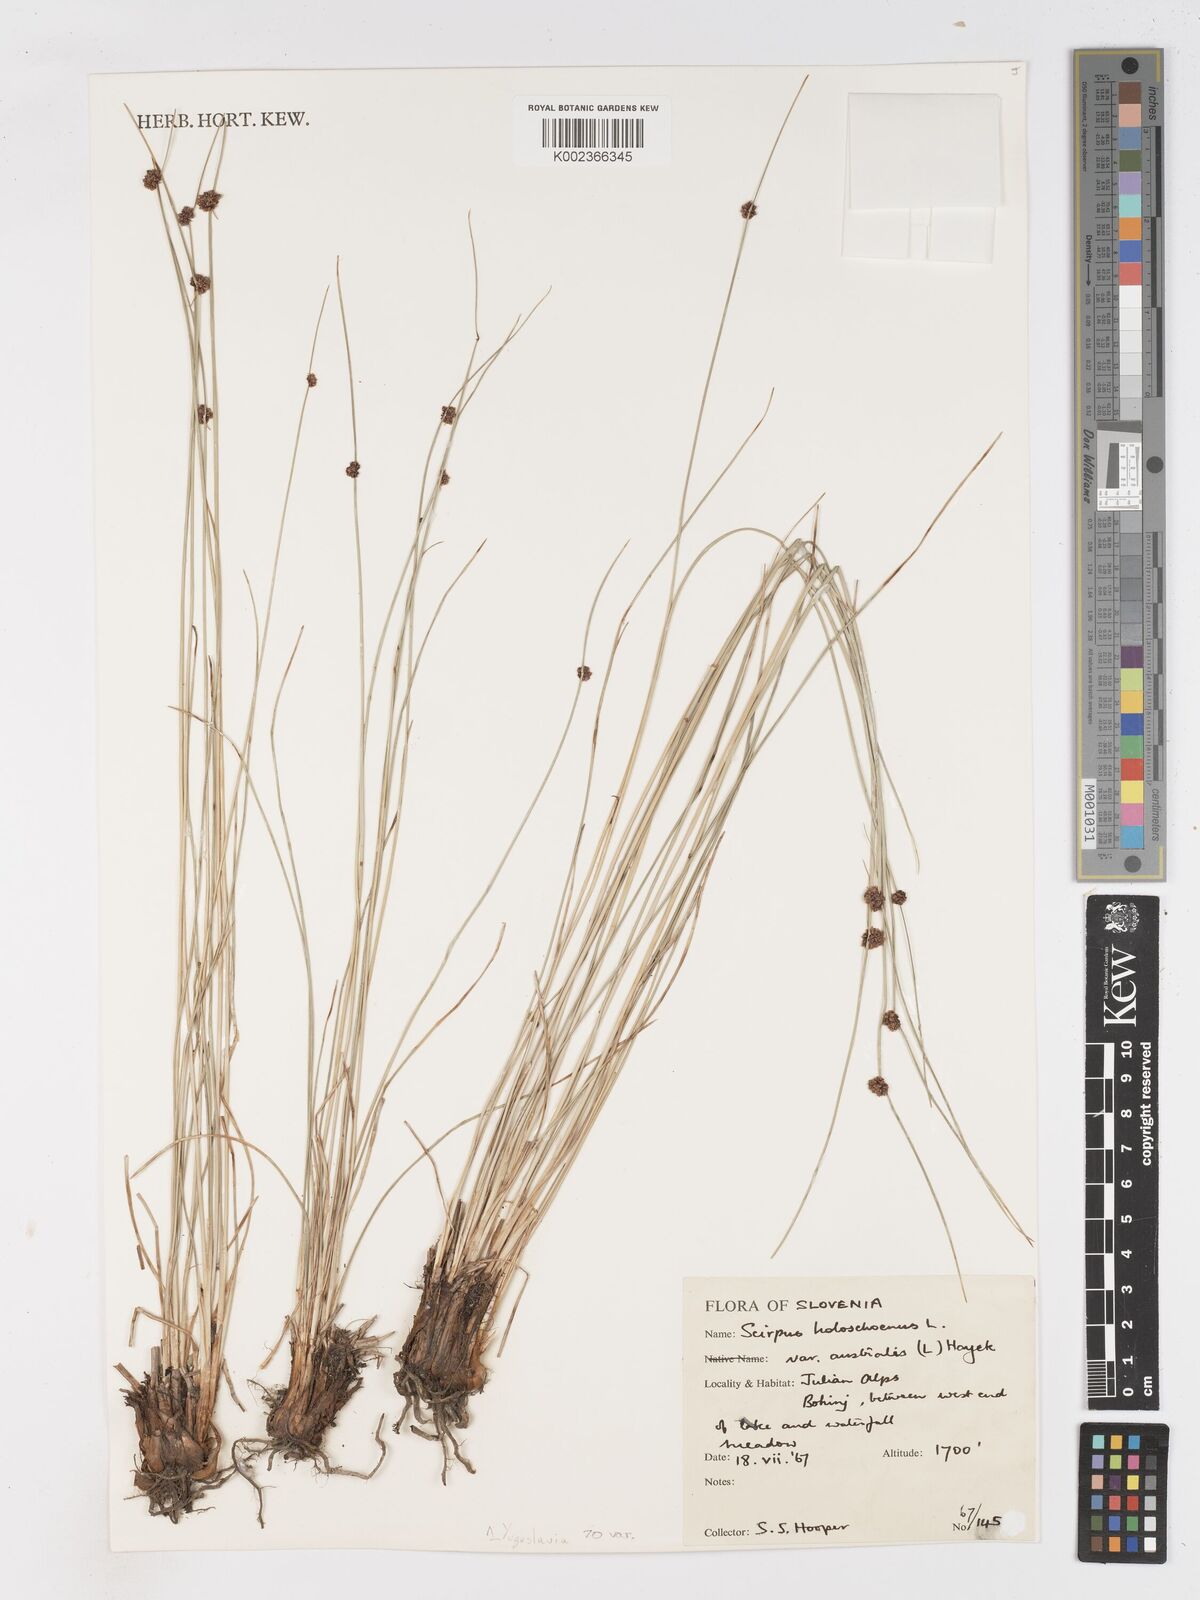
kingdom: Plantae
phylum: Tracheophyta
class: Liliopsida
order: Poales
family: Cyperaceae
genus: Scirpoides
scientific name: Scirpoides holoschoenus
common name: Round-headed club-rush
